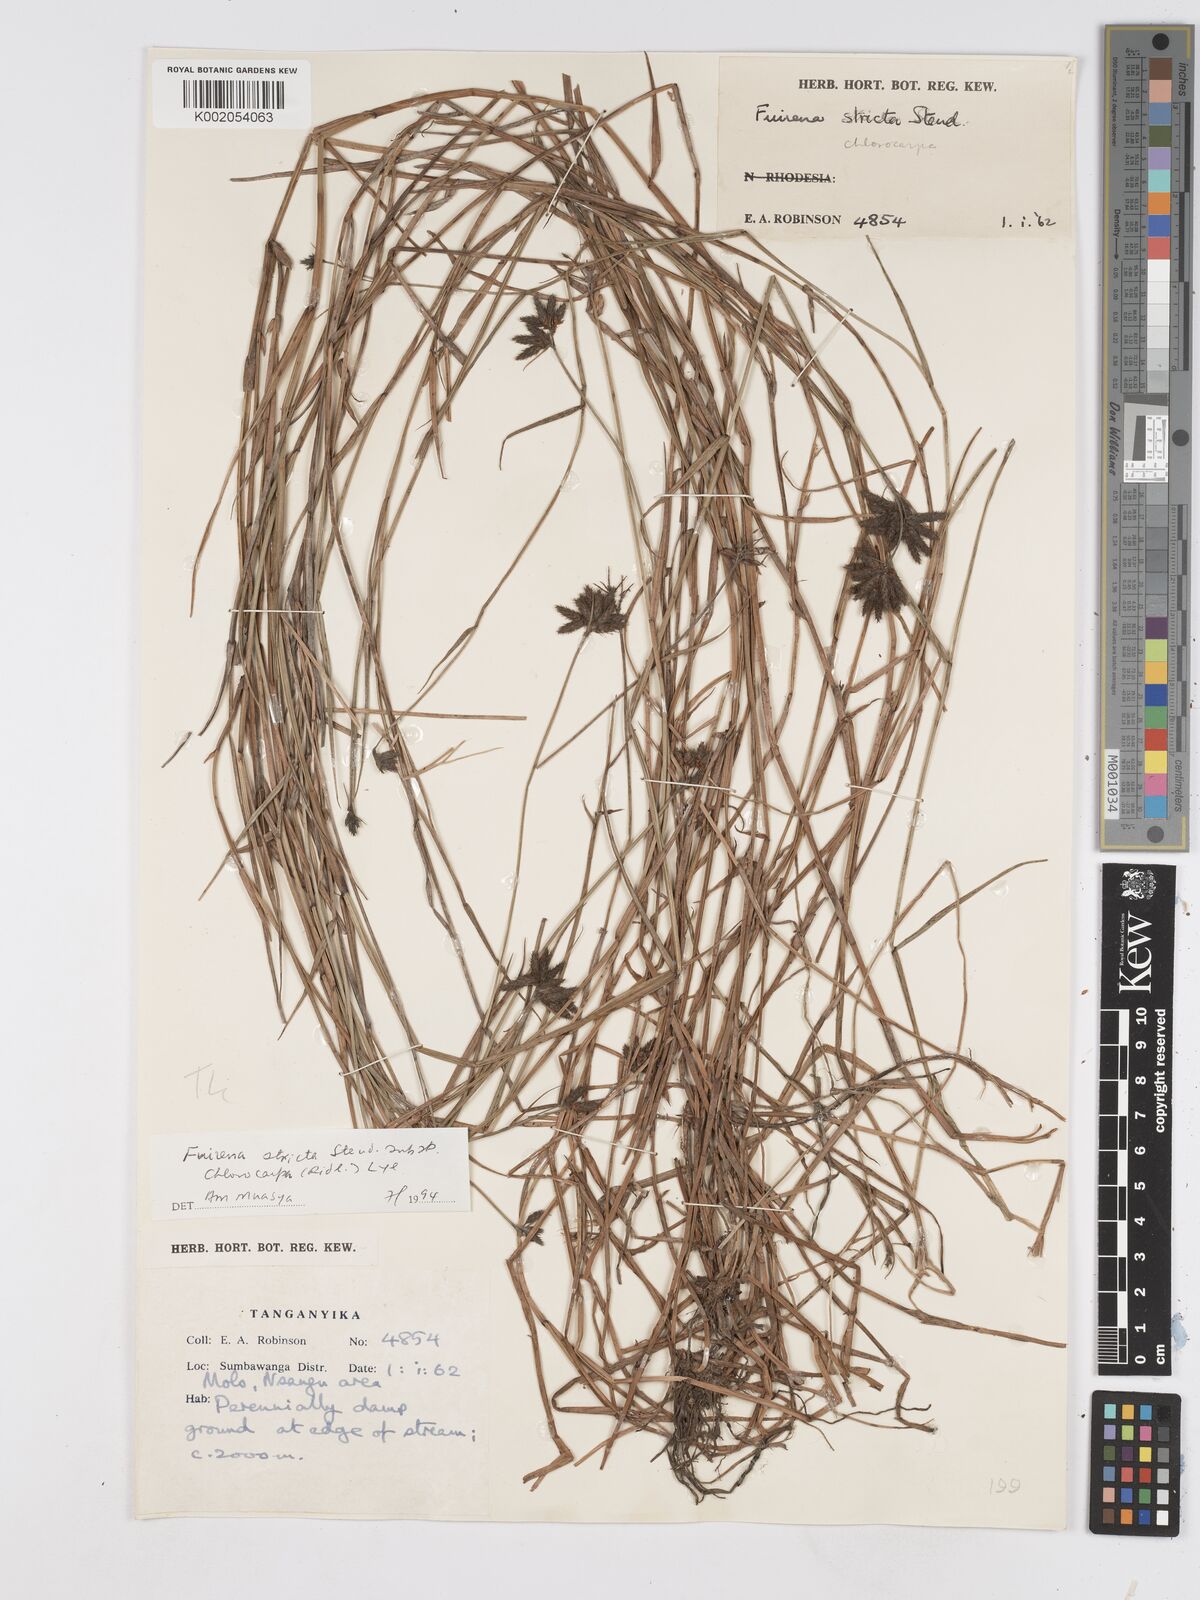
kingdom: Plantae
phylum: Tracheophyta
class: Liliopsida
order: Poales
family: Cyperaceae
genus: Fuirena
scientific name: Fuirena stricta
